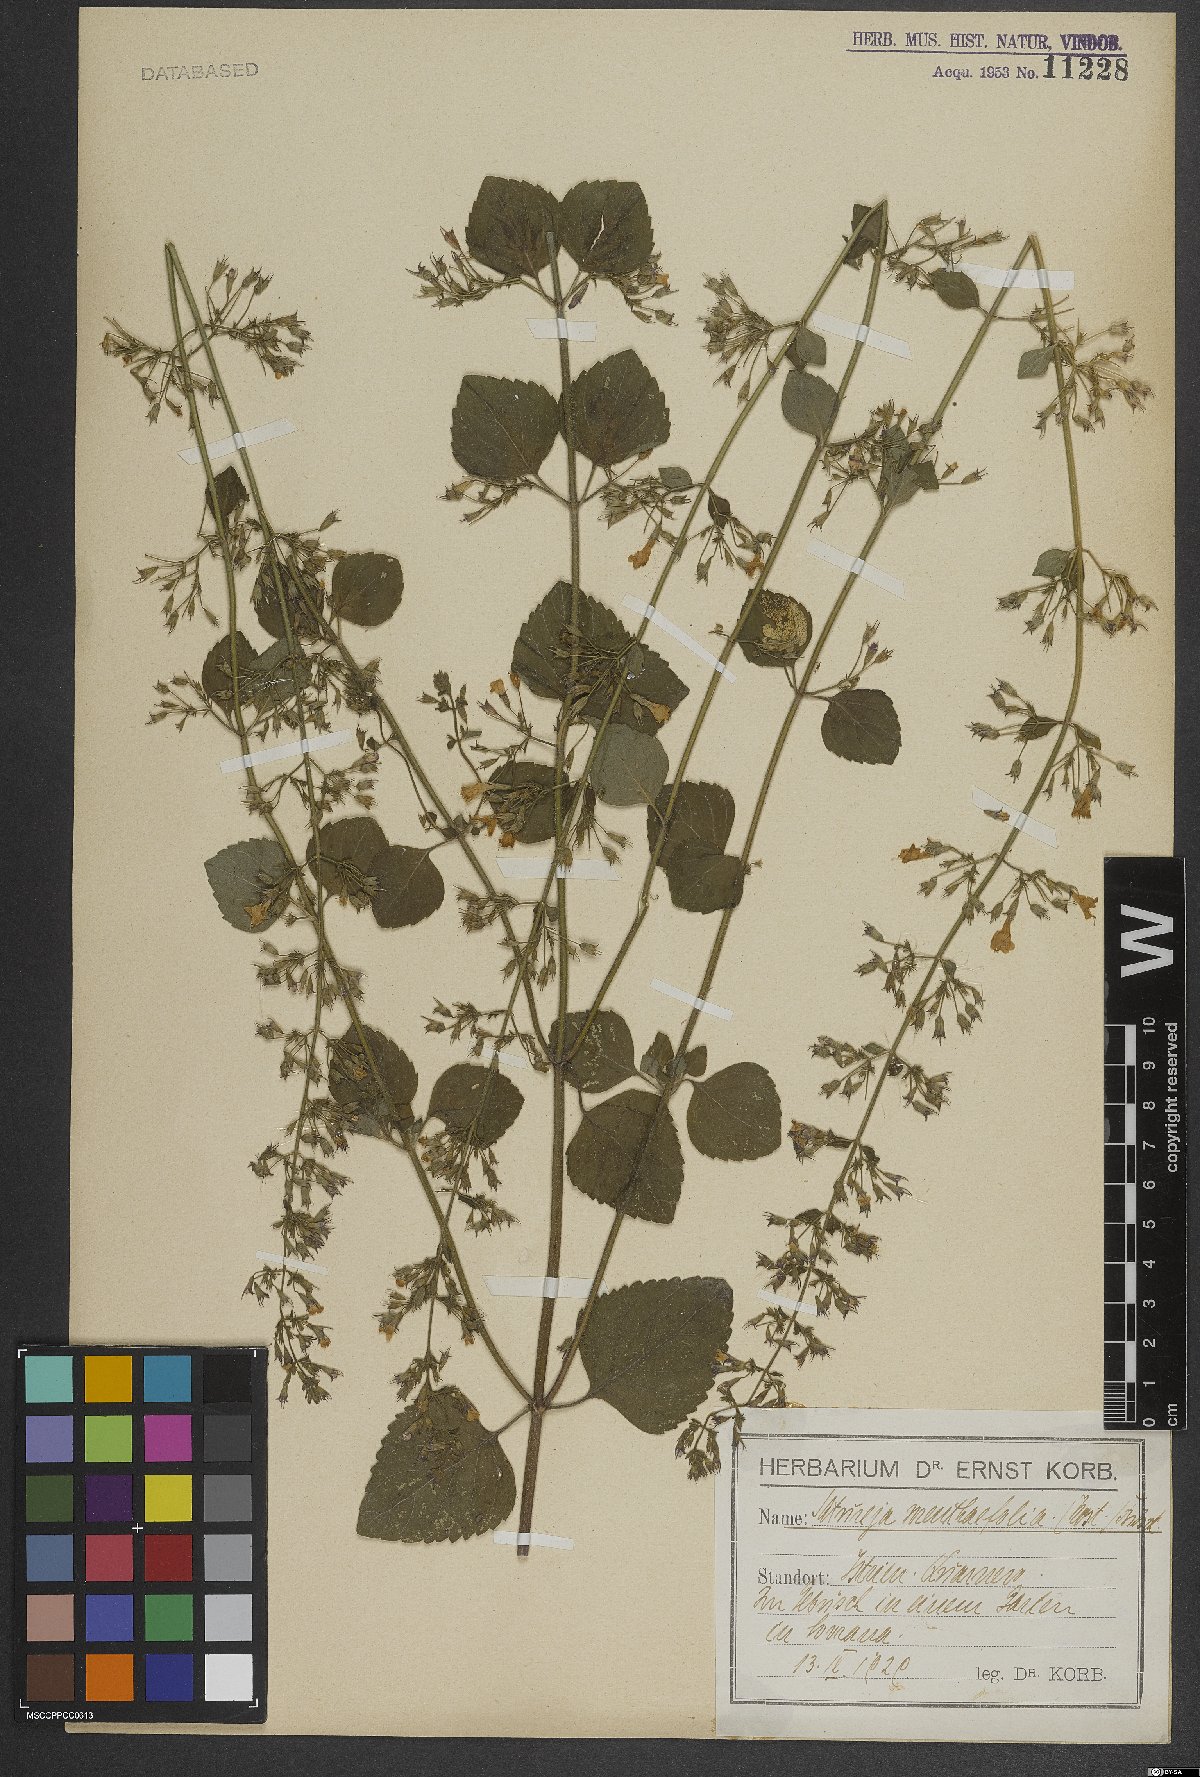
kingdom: Plantae
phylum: Tracheophyta
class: Magnoliopsida
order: Lamiales
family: Lamiaceae
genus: Clinopodium
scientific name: Clinopodium menthifolium
